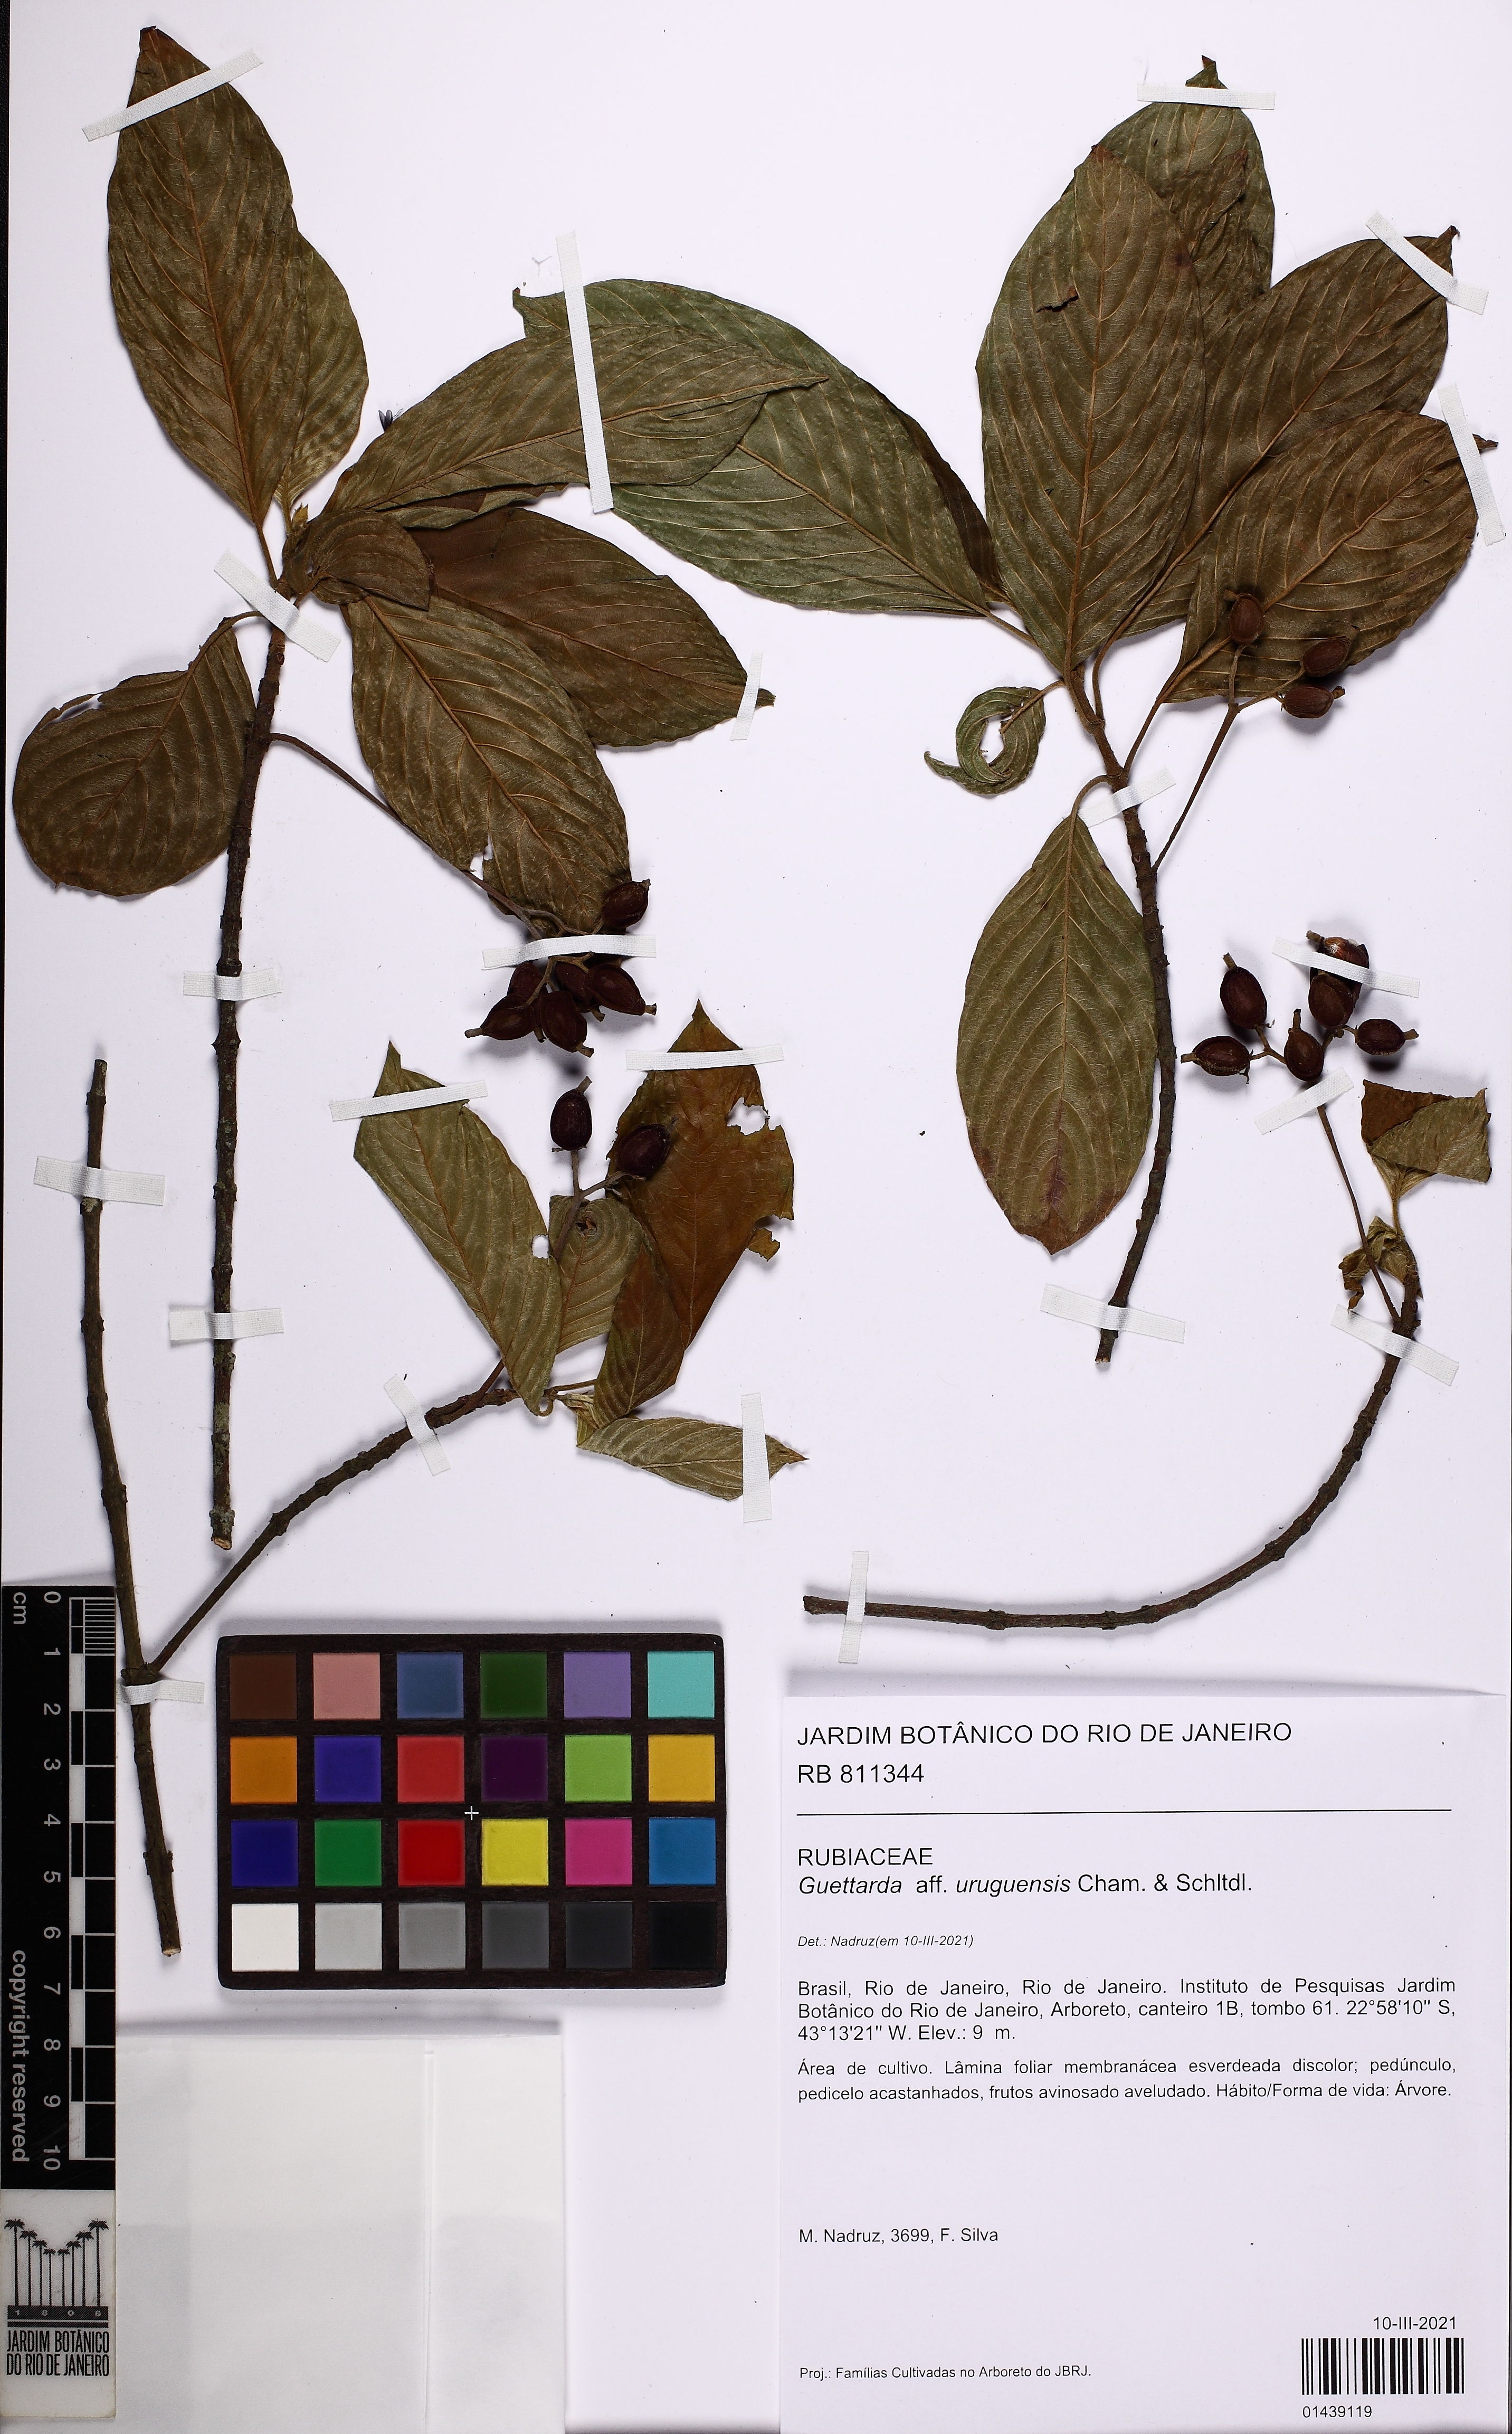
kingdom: Plantae
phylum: Tracheophyta
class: Magnoliopsida
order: Gentianales
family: Rubiaceae
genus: Guettarda
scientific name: Guettarda uruguensis
